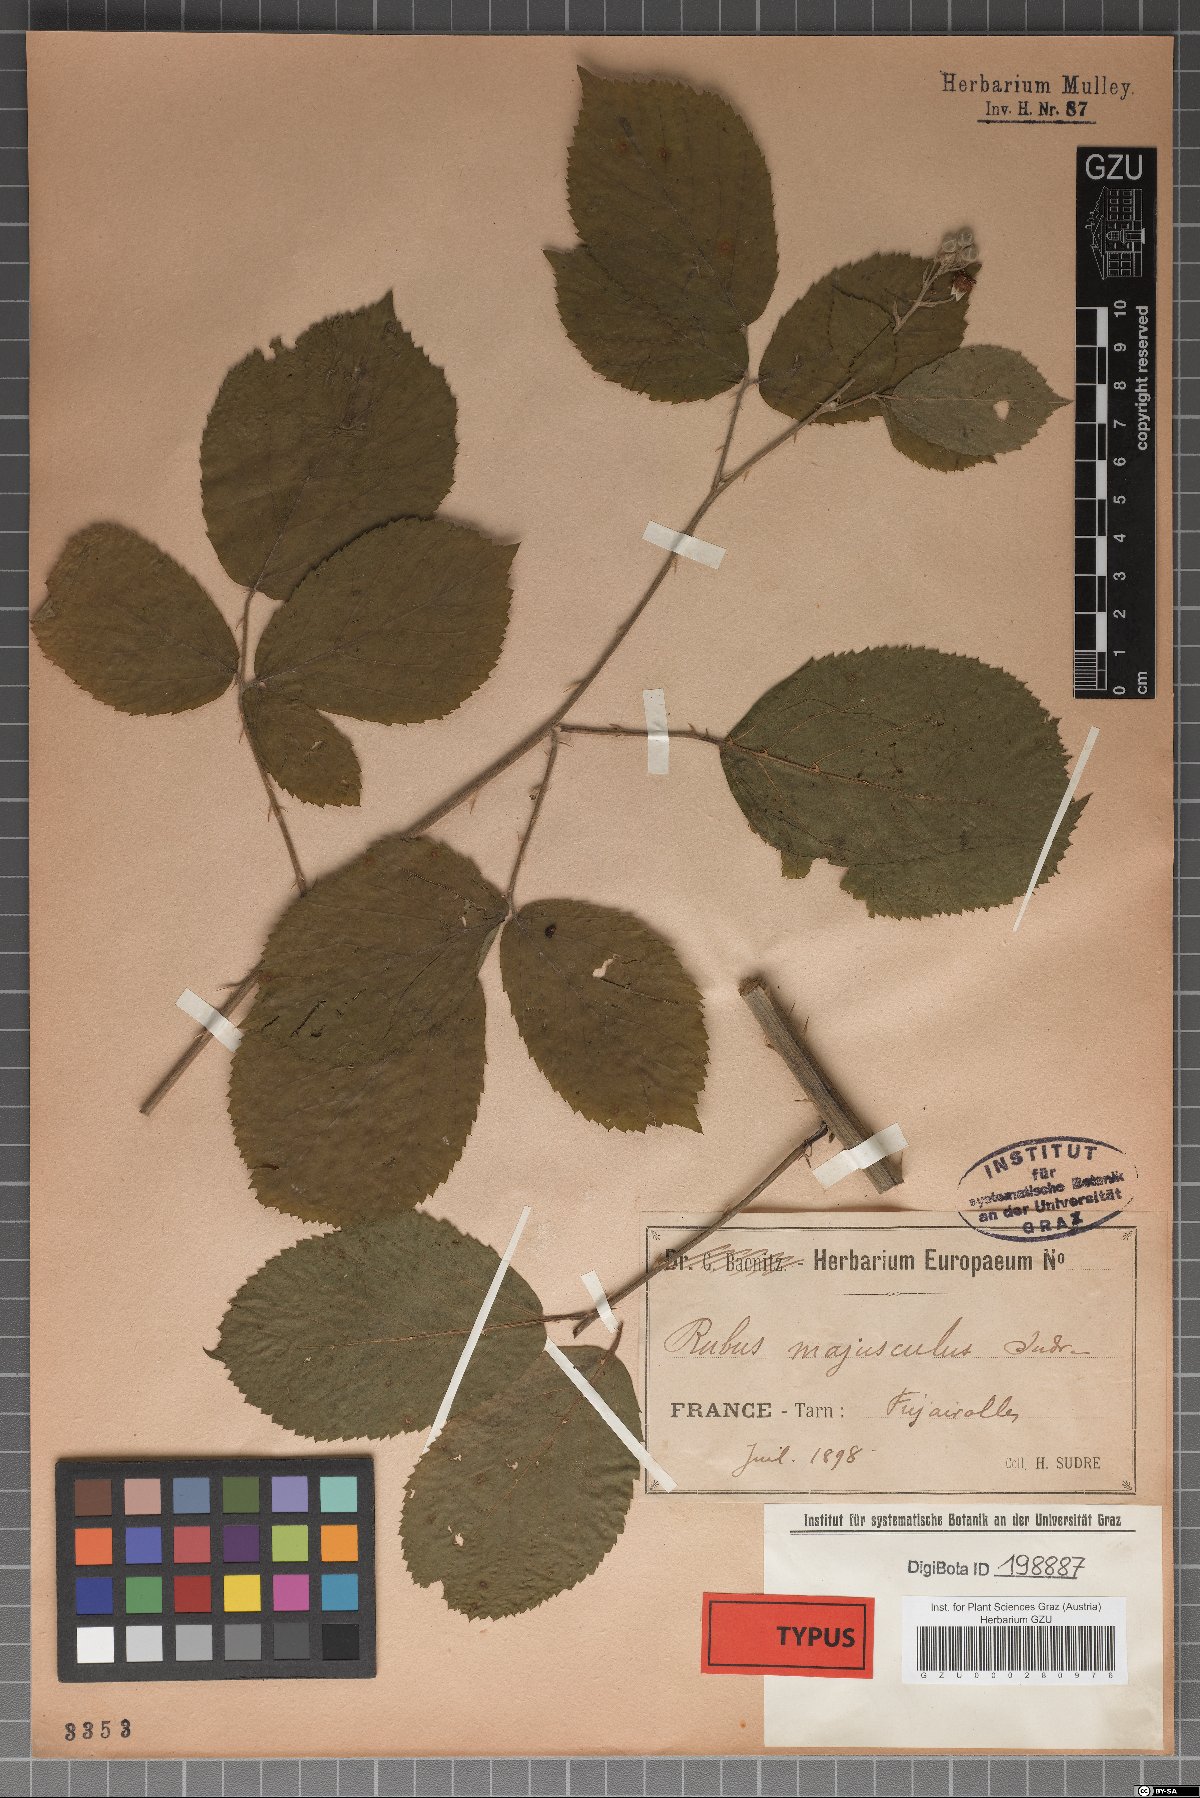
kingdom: Plantae
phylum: Tracheophyta
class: Magnoliopsida
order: Rosales
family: Rosaceae
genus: Rubus
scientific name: Rubus majusculus
